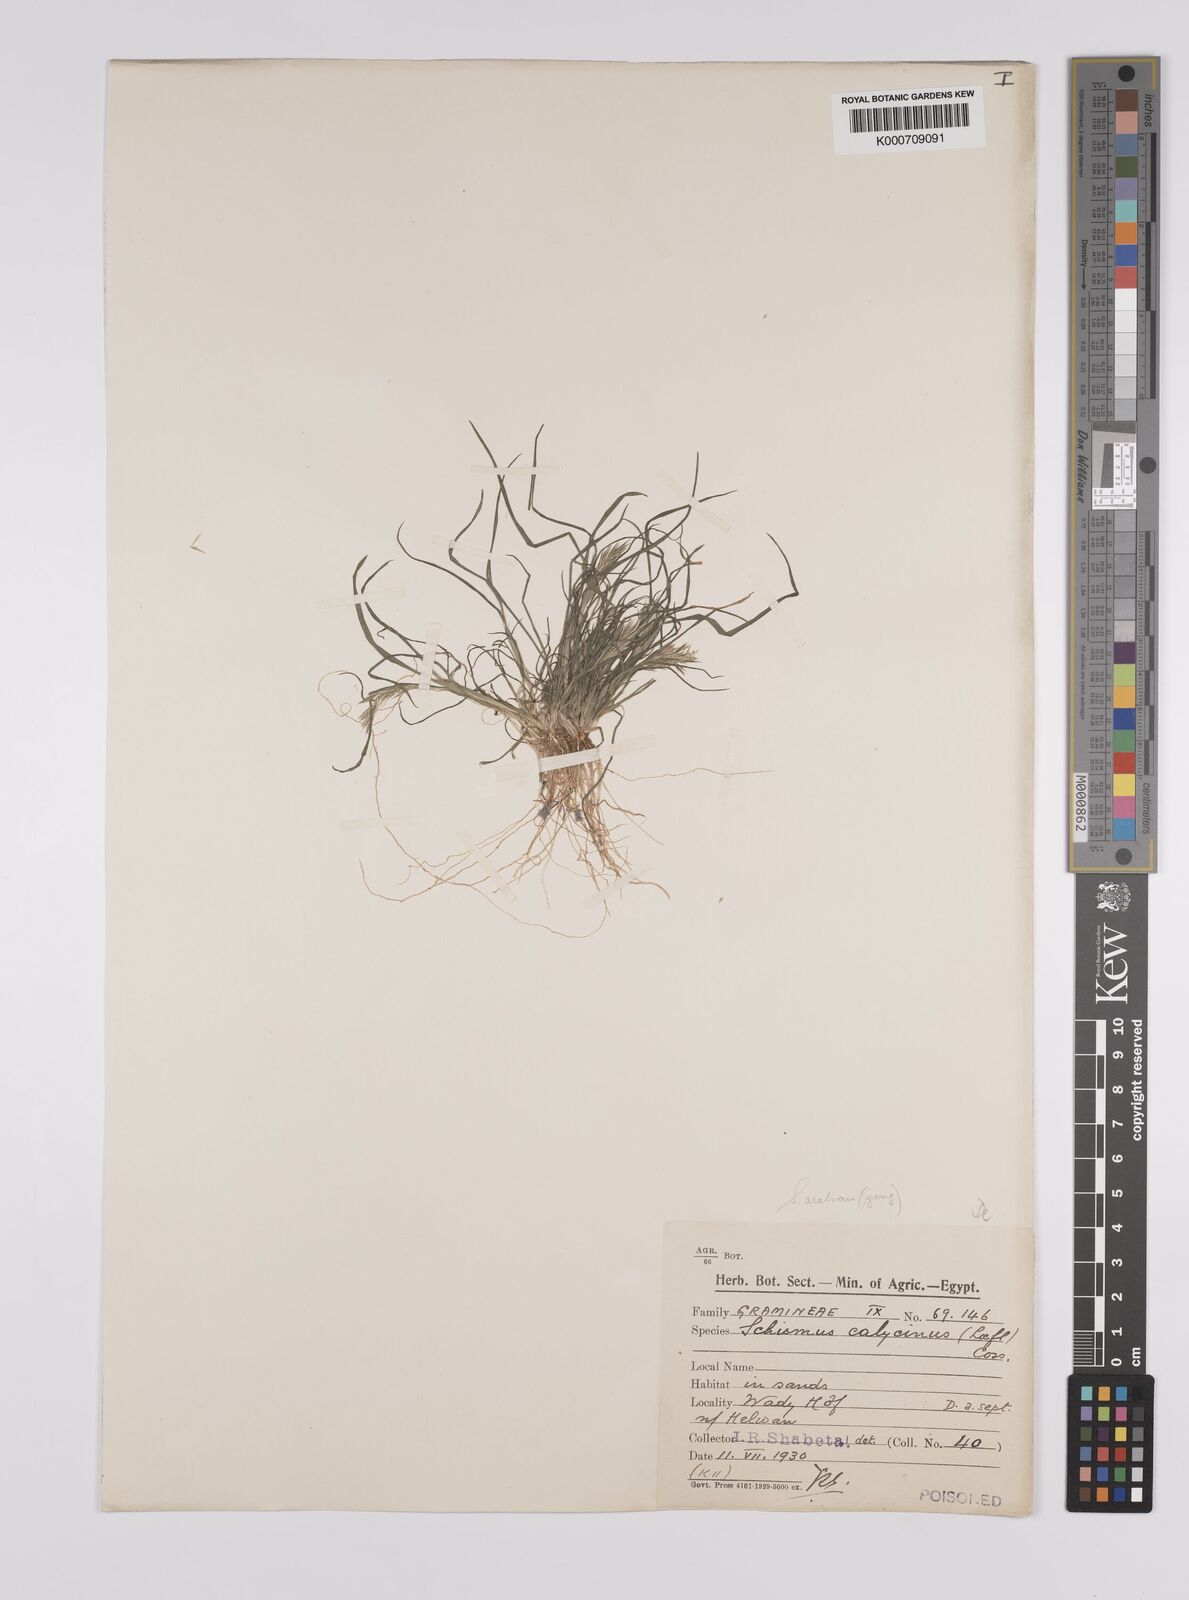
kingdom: Plantae
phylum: Tracheophyta
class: Liliopsida
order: Poales
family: Poaceae
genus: Schismus
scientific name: Schismus arabicus
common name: Arabian schismus
